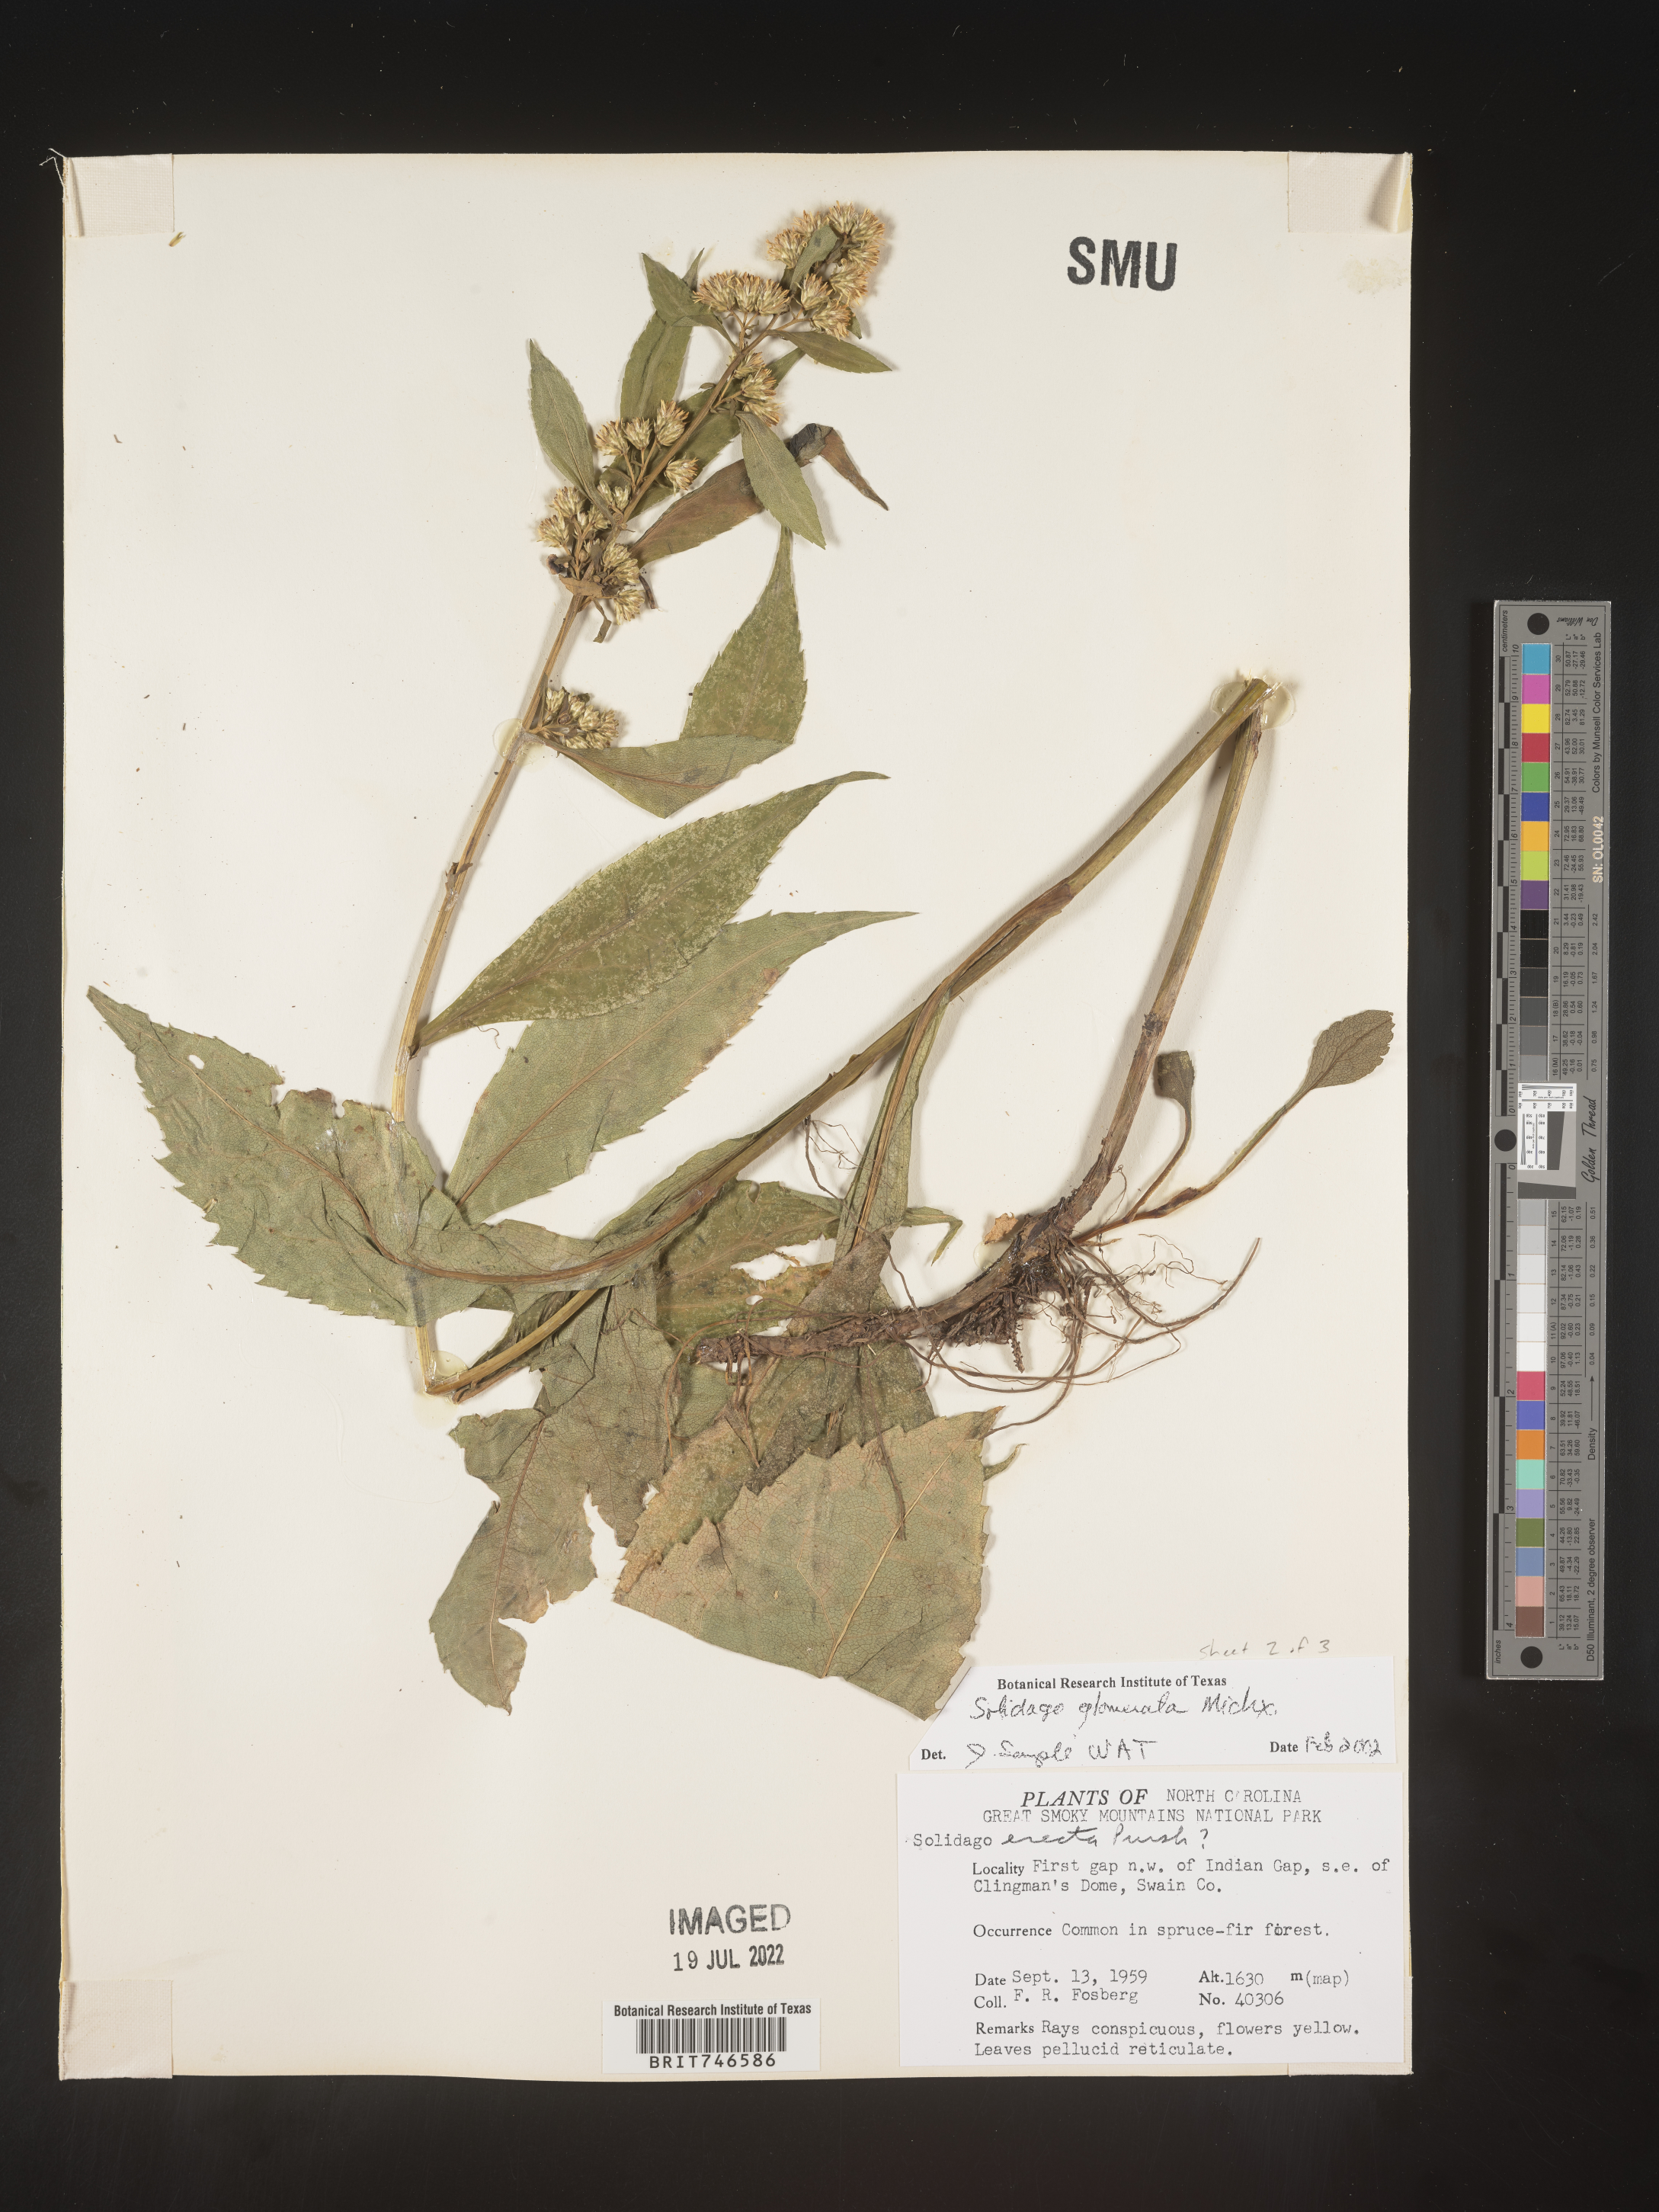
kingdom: Plantae
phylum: Tracheophyta
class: Magnoliopsida
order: Asterales
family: Asteraceae
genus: Solidago
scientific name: Solidago glomerata
